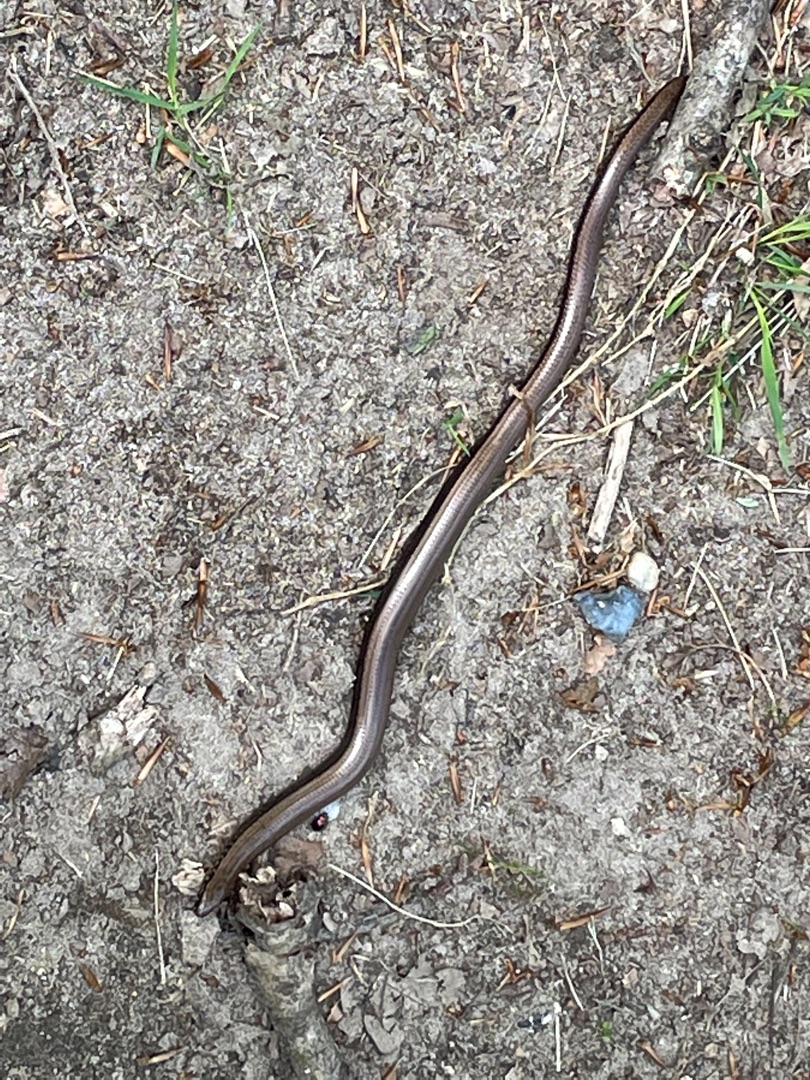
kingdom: Animalia
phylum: Chordata
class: Squamata
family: Anguidae
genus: Anguis
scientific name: Anguis fragilis
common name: Stålorm
